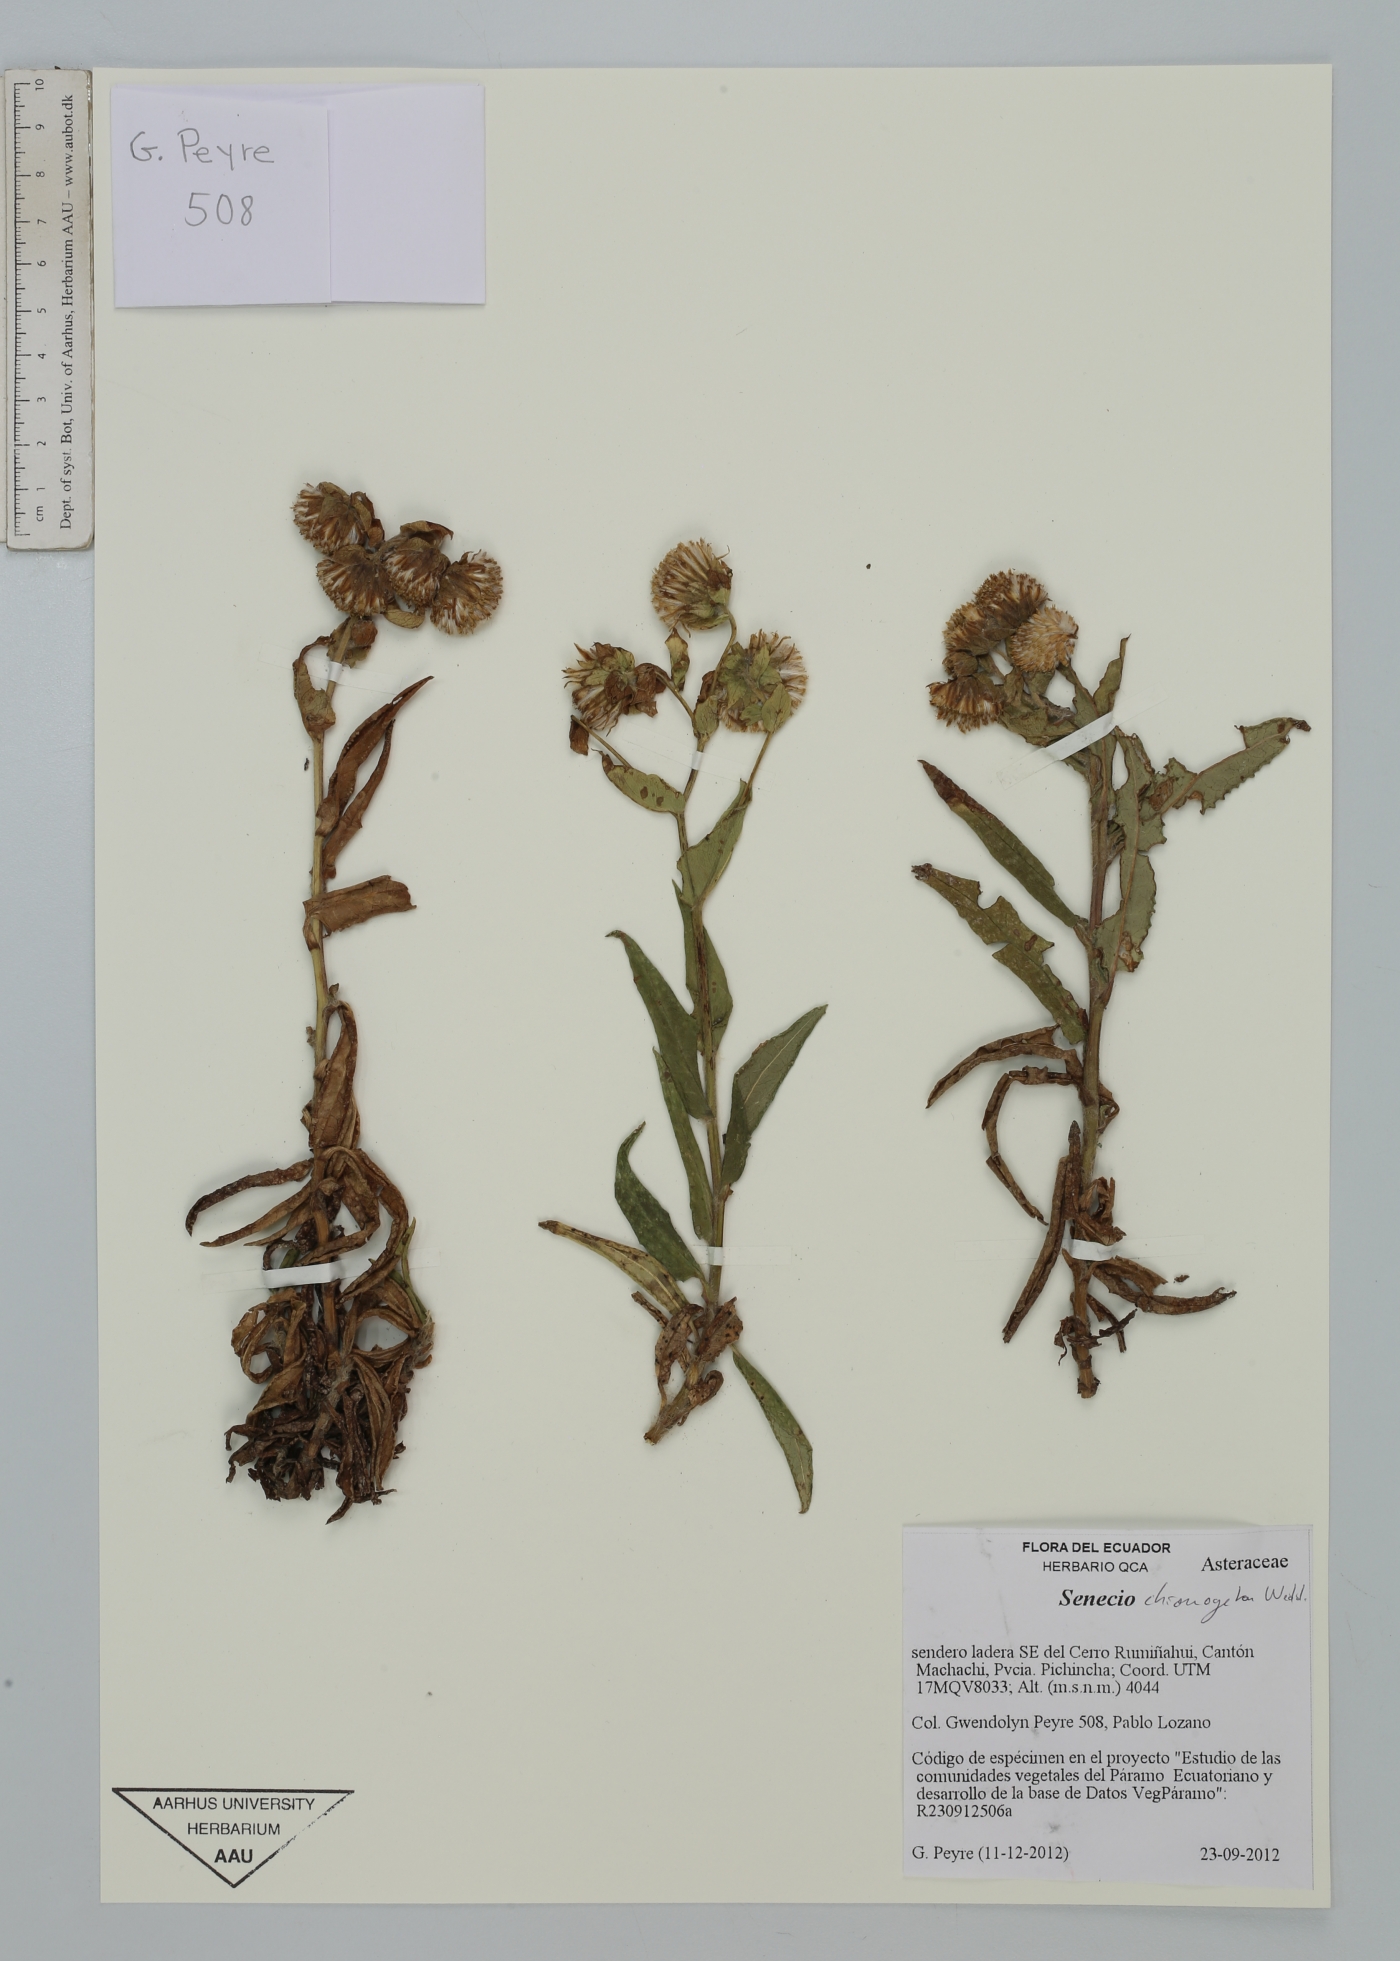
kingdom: Plantae
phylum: Tracheophyta
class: Magnoliopsida
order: Asterales
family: Asteraceae
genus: Senecio
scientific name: Senecio chionogeton
